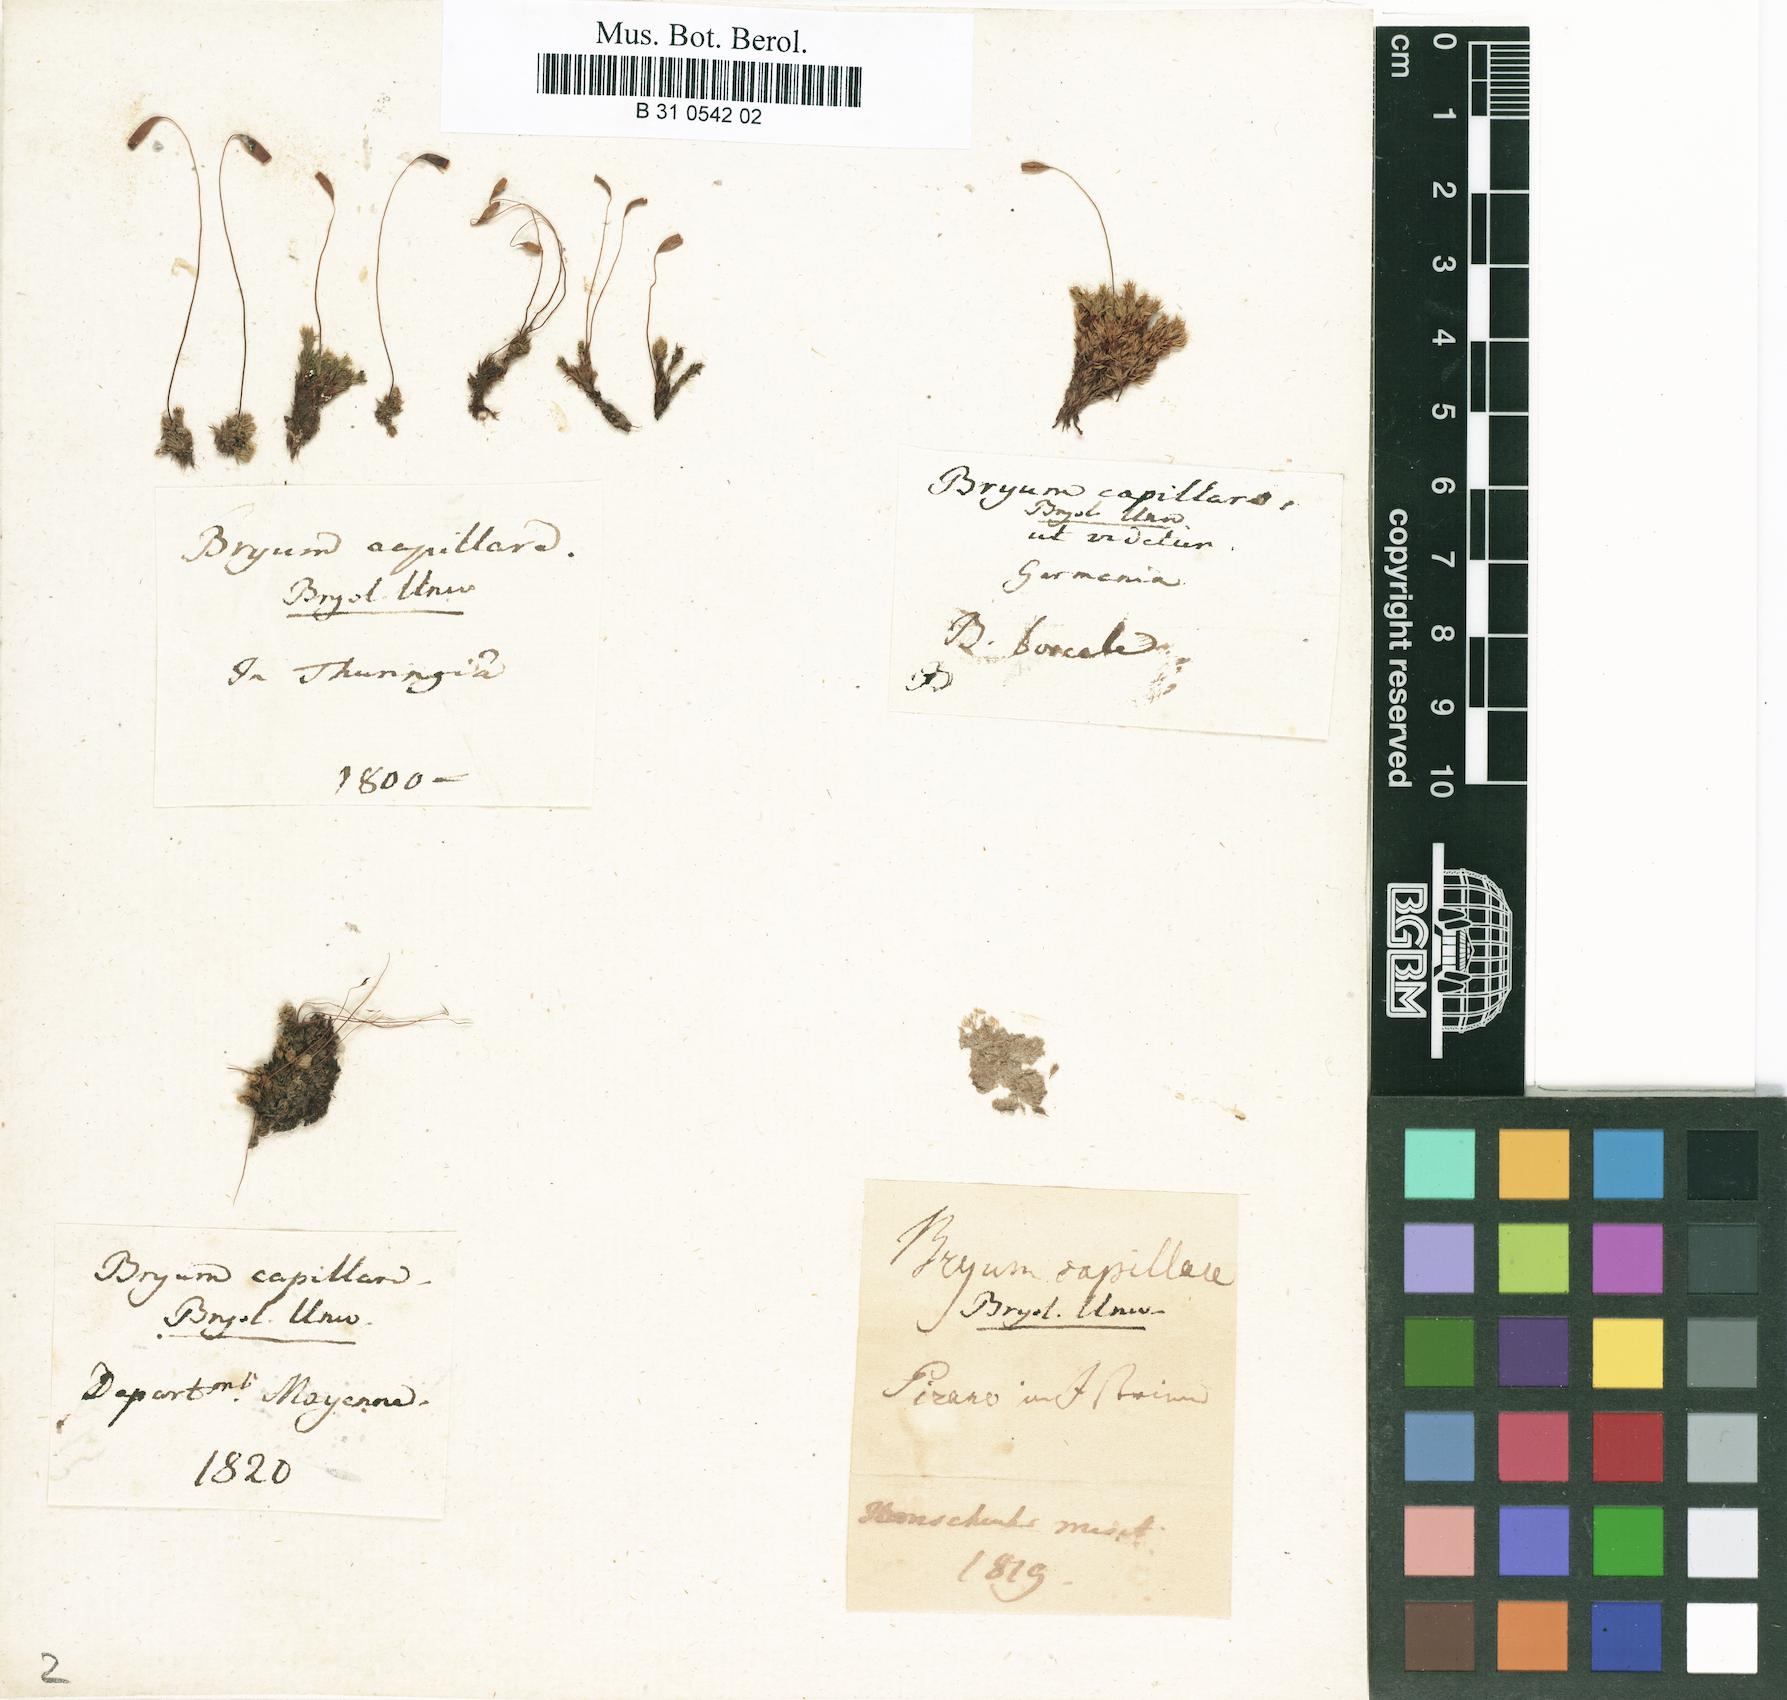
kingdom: Plantae
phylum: Bryophyta
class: Bryopsida
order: Bryales
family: Bryaceae
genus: Rosulabryum
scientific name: Rosulabryum capillare
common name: Capillary thread-moss
